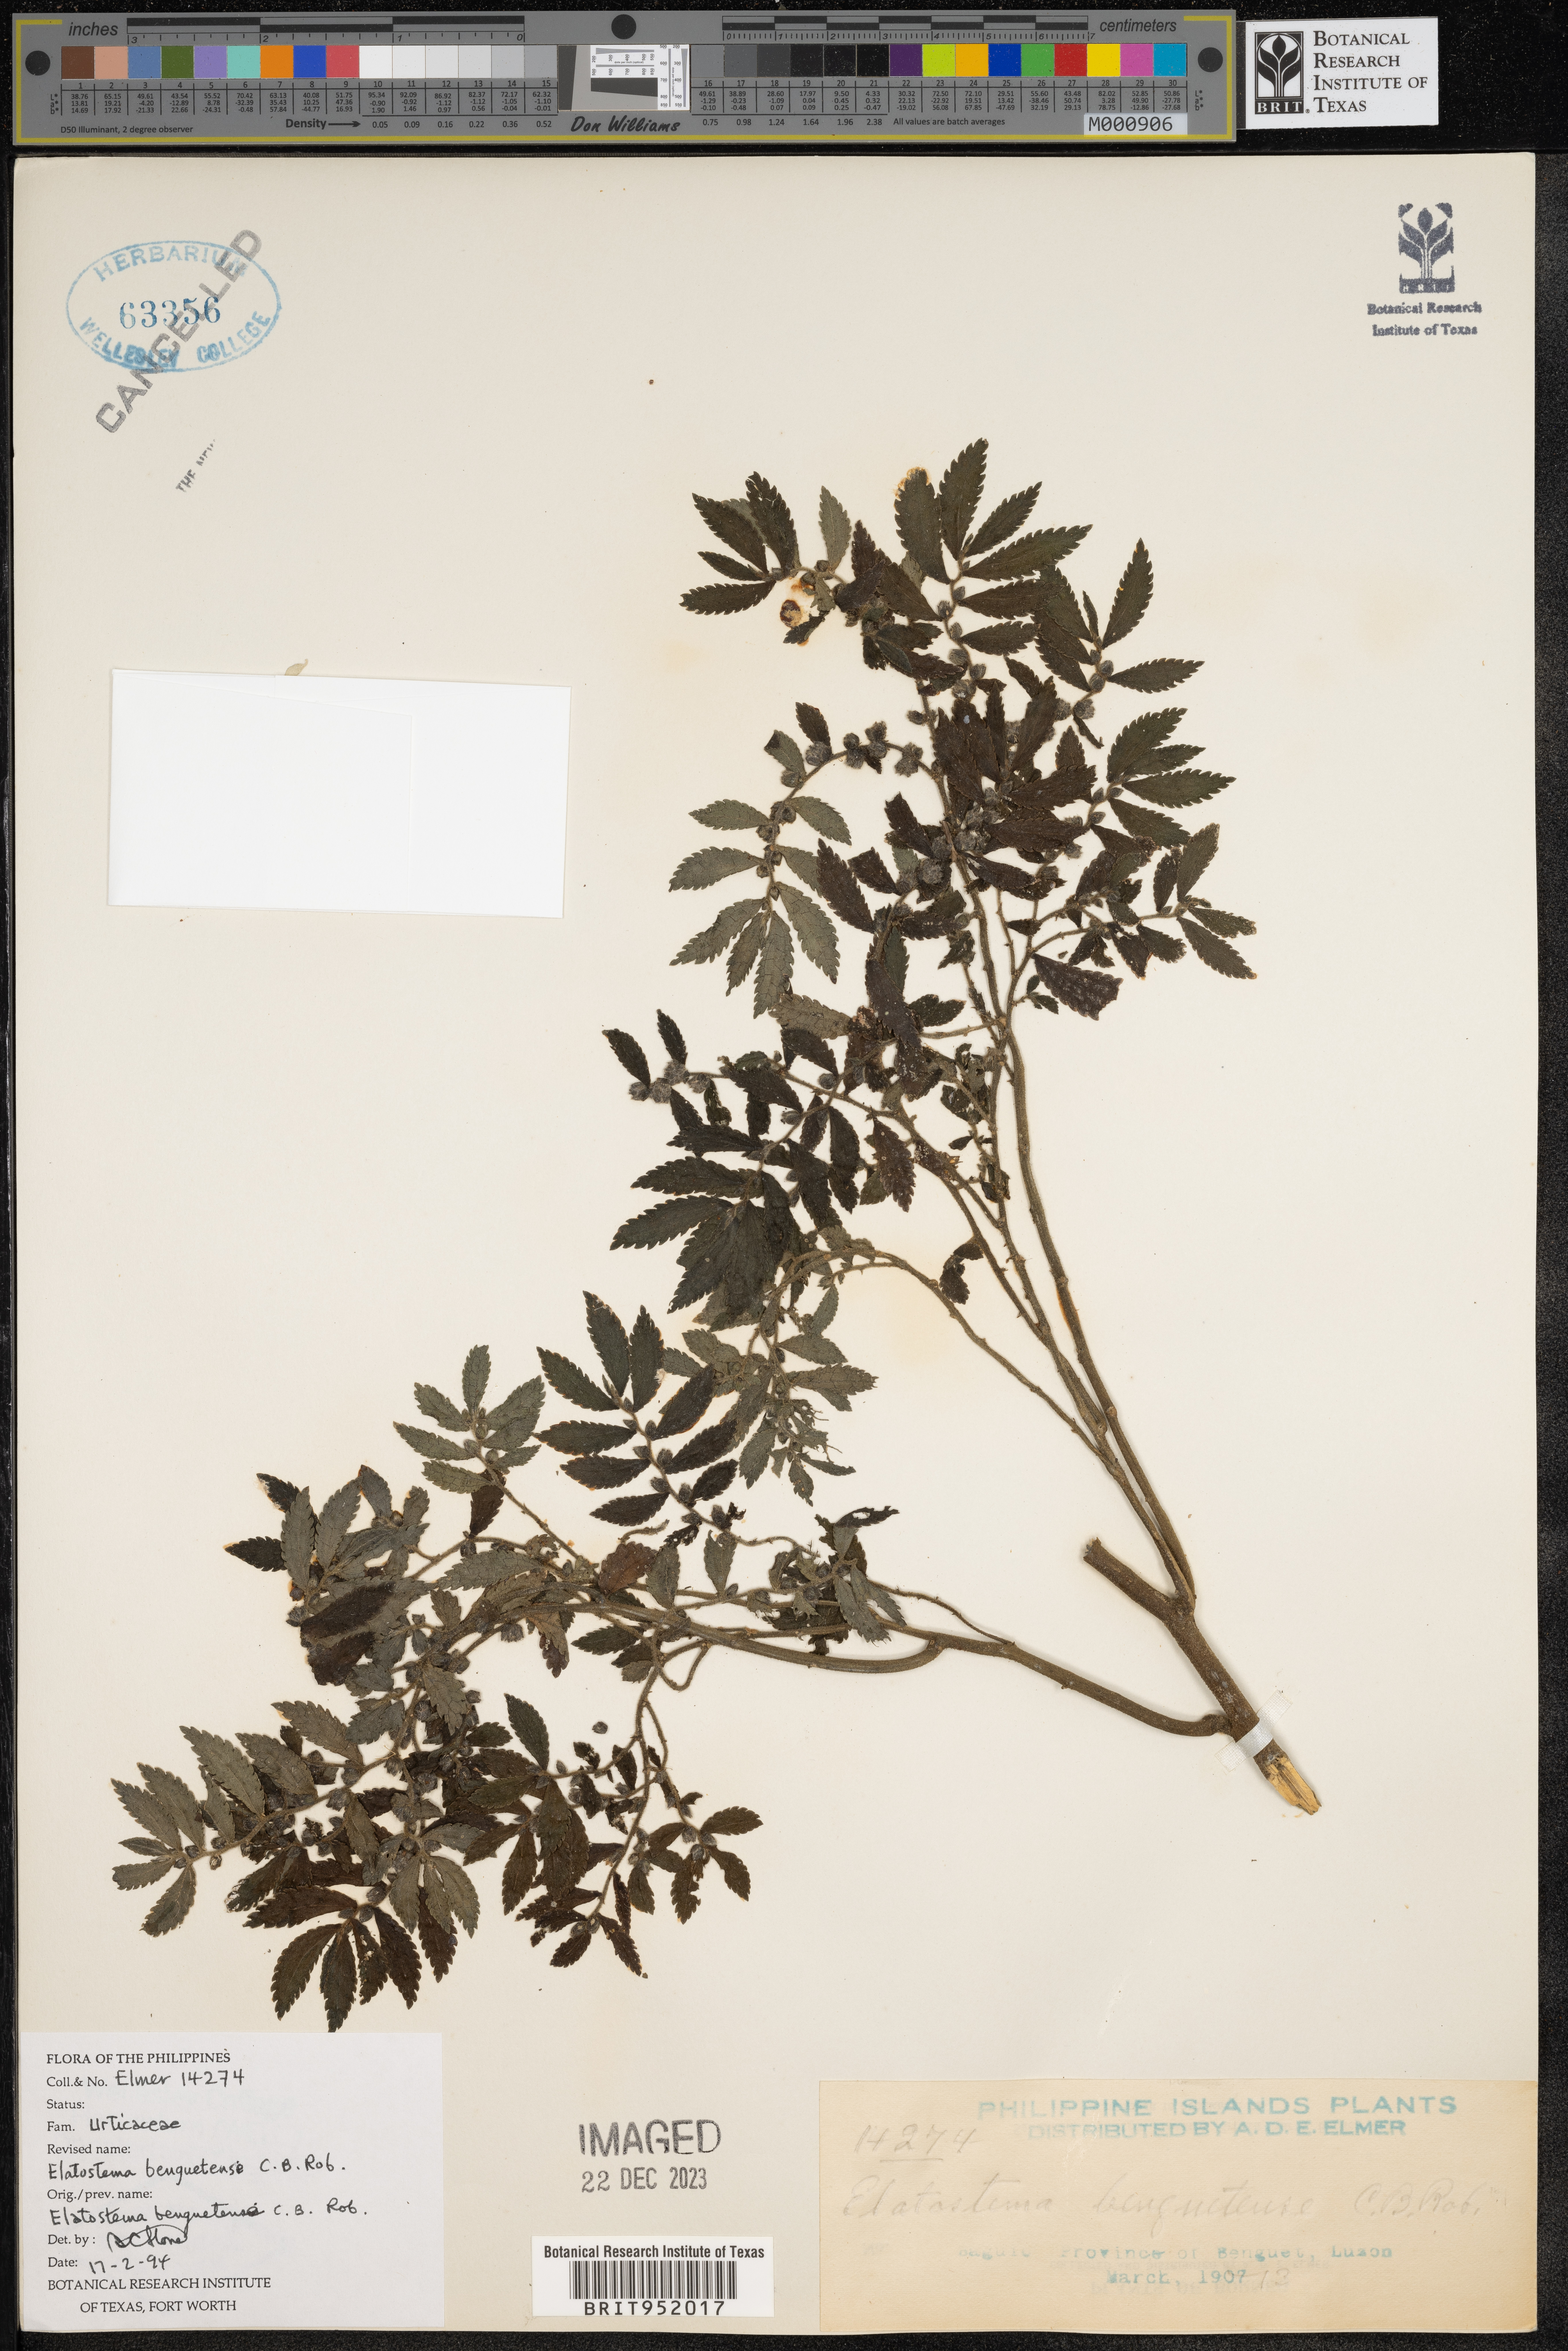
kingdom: Plantae
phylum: Tracheophyta
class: Magnoliopsida
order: Rosales
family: Urticaceae
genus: Elatostema
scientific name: Elatostema
